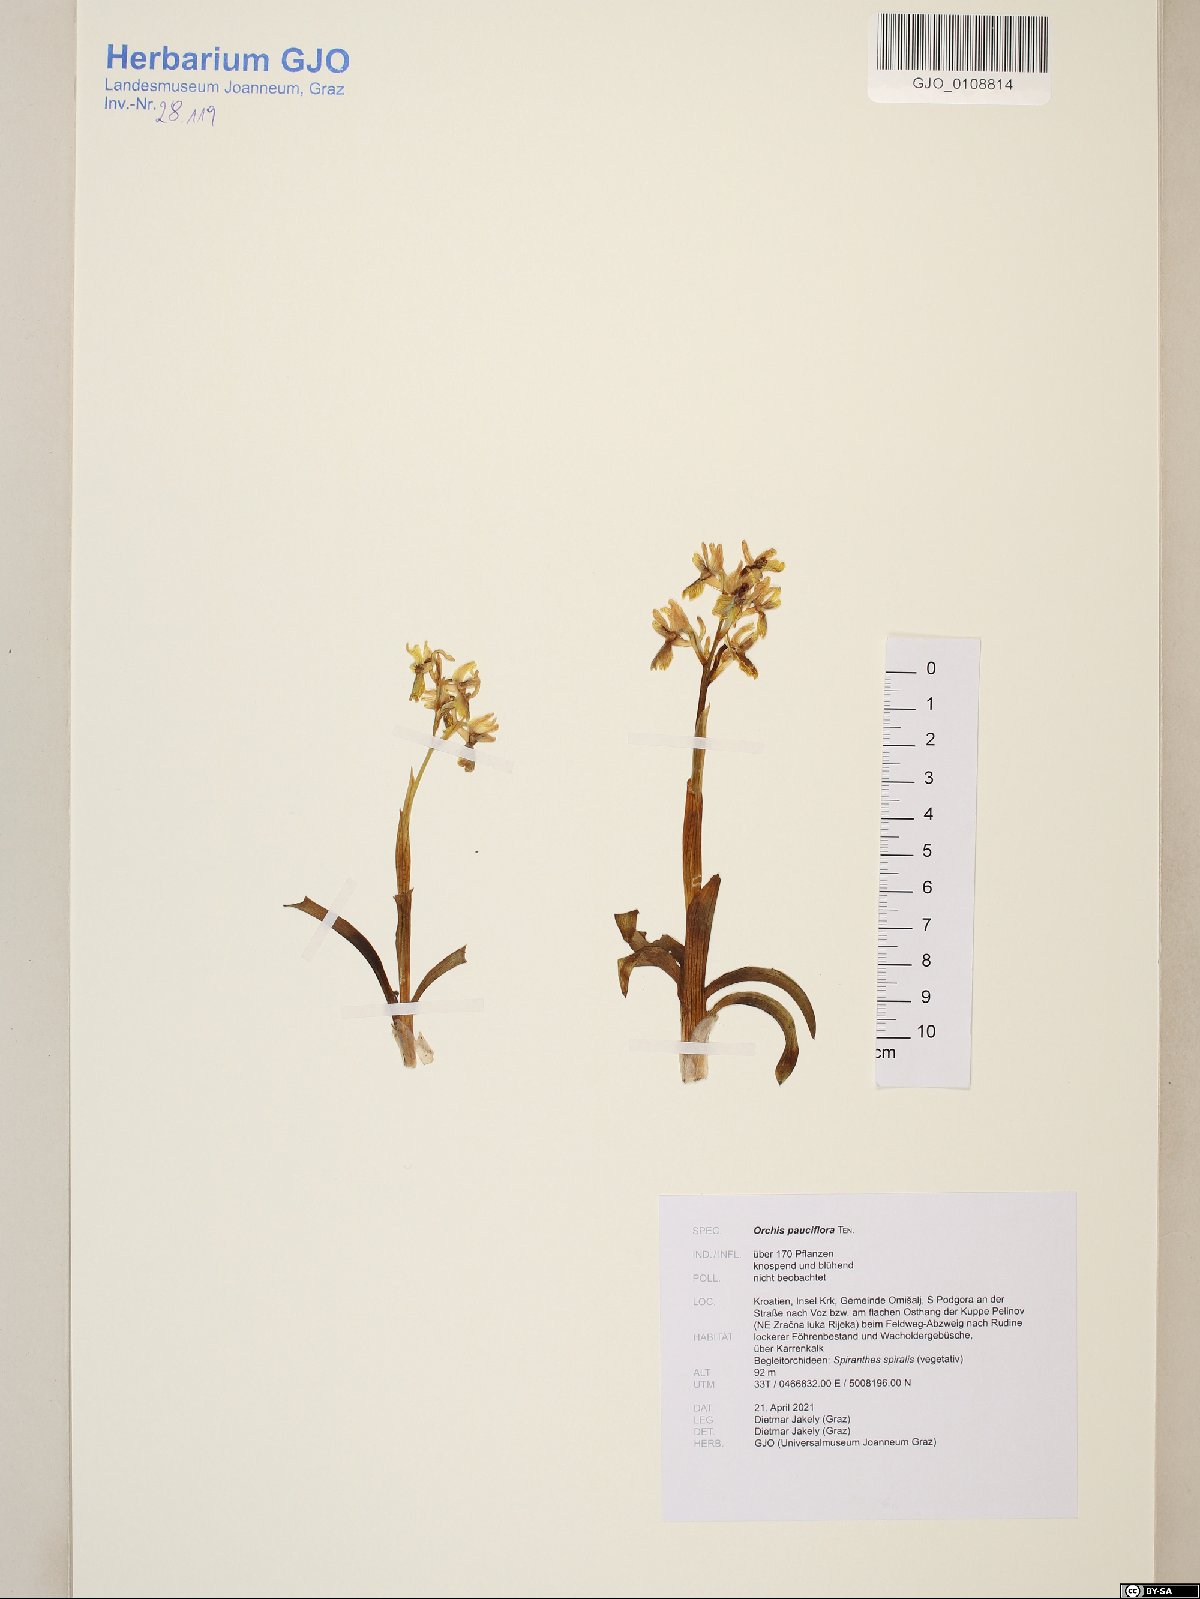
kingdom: Plantae
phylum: Tracheophyta
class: Liliopsida
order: Asparagales
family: Orchidaceae
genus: Orchis
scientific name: Orchis pauciflora
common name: Few-flowered orchid
